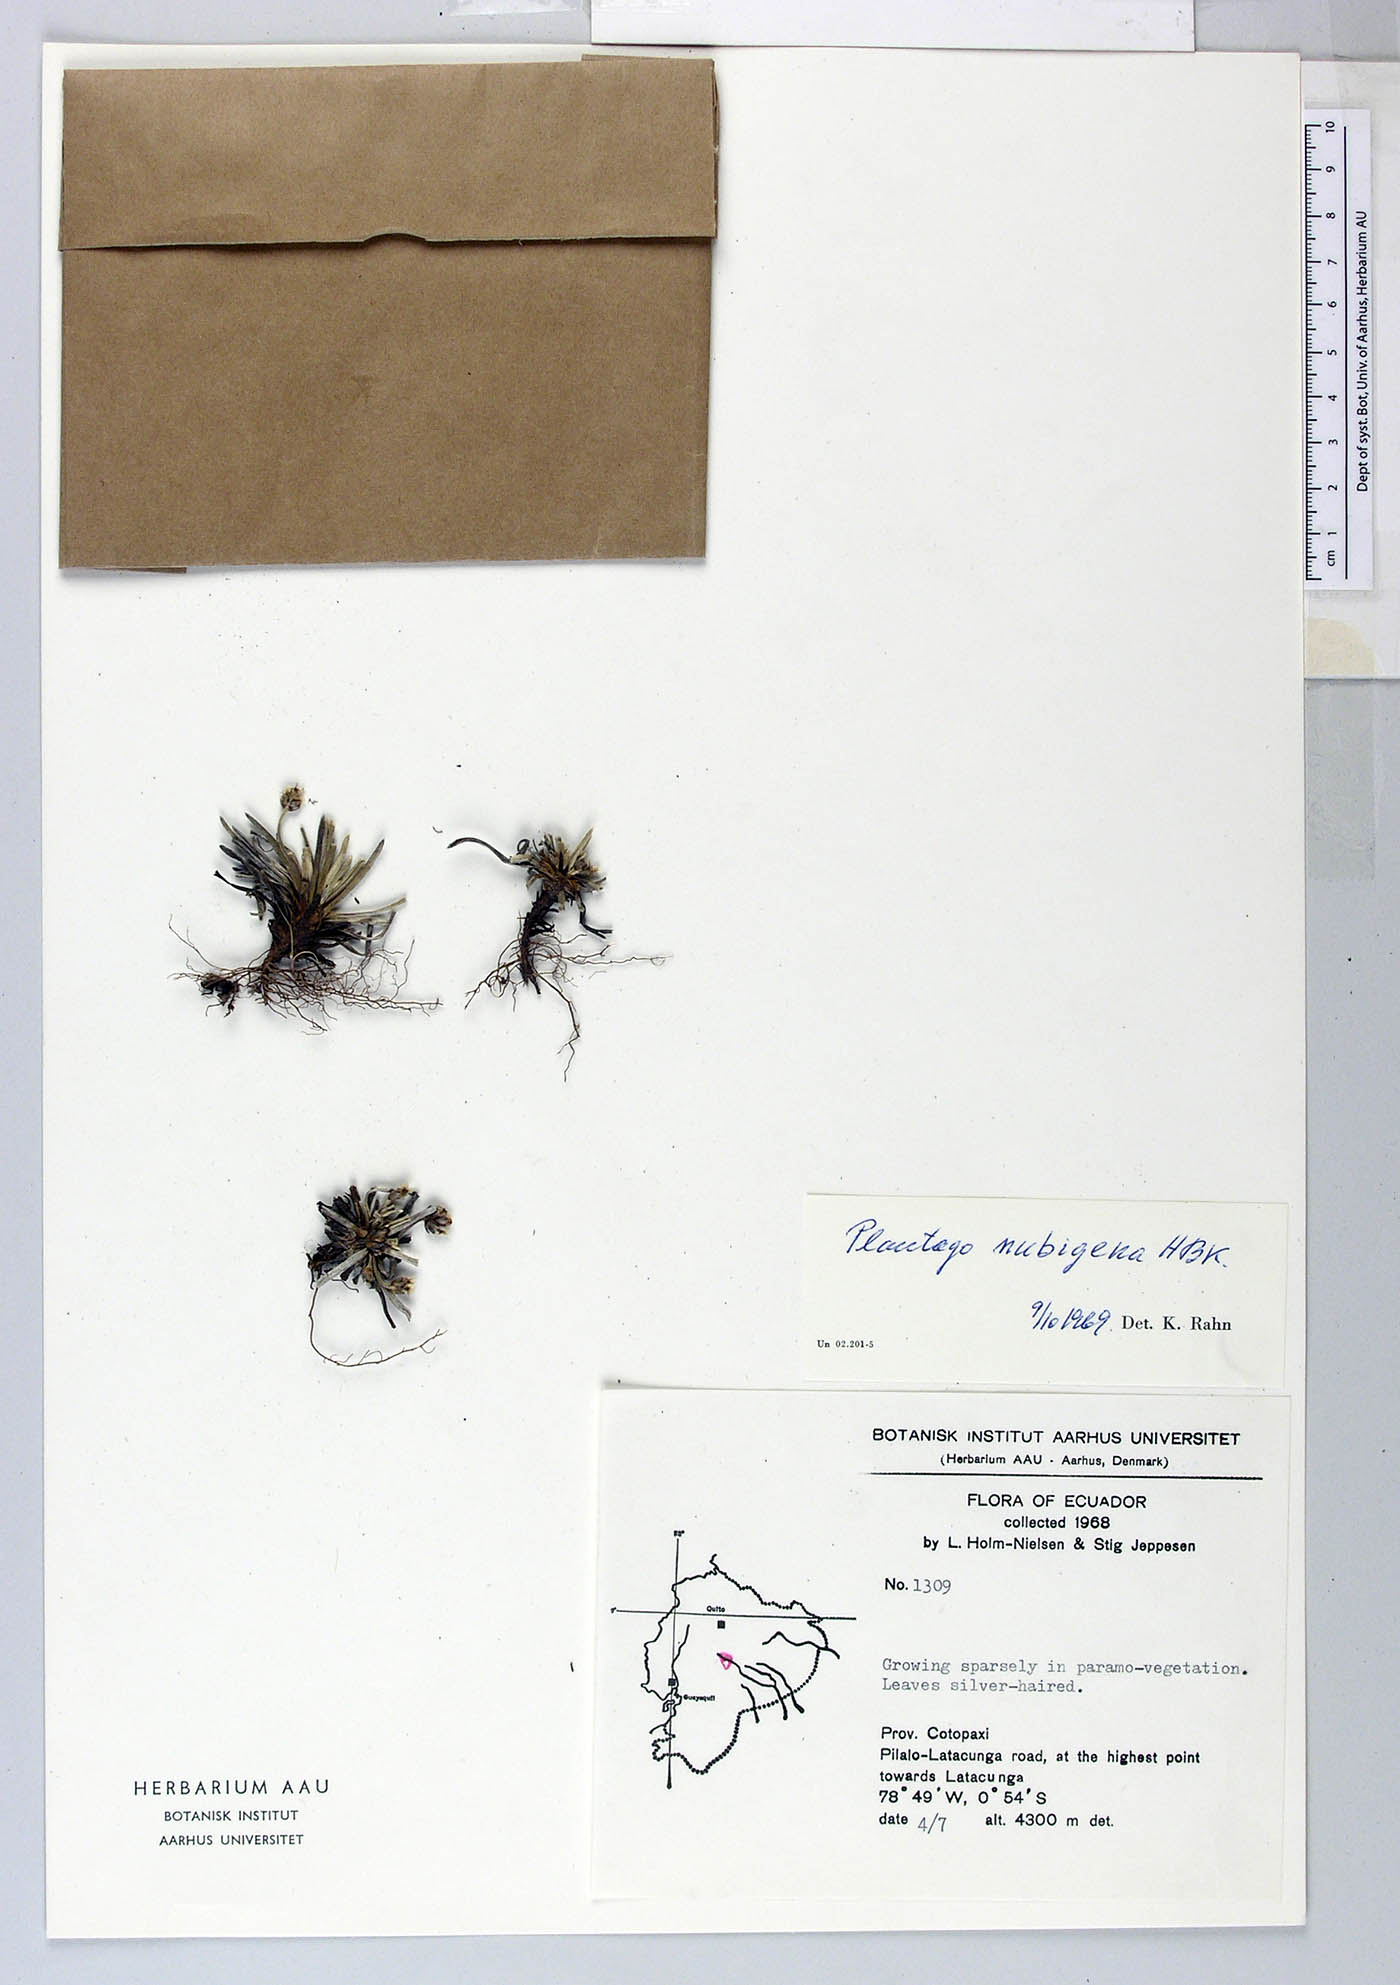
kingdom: Plantae
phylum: Tracheophyta
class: Magnoliopsida
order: Lamiales
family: Plantaginaceae
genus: Plantago
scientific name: Plantago sericea
